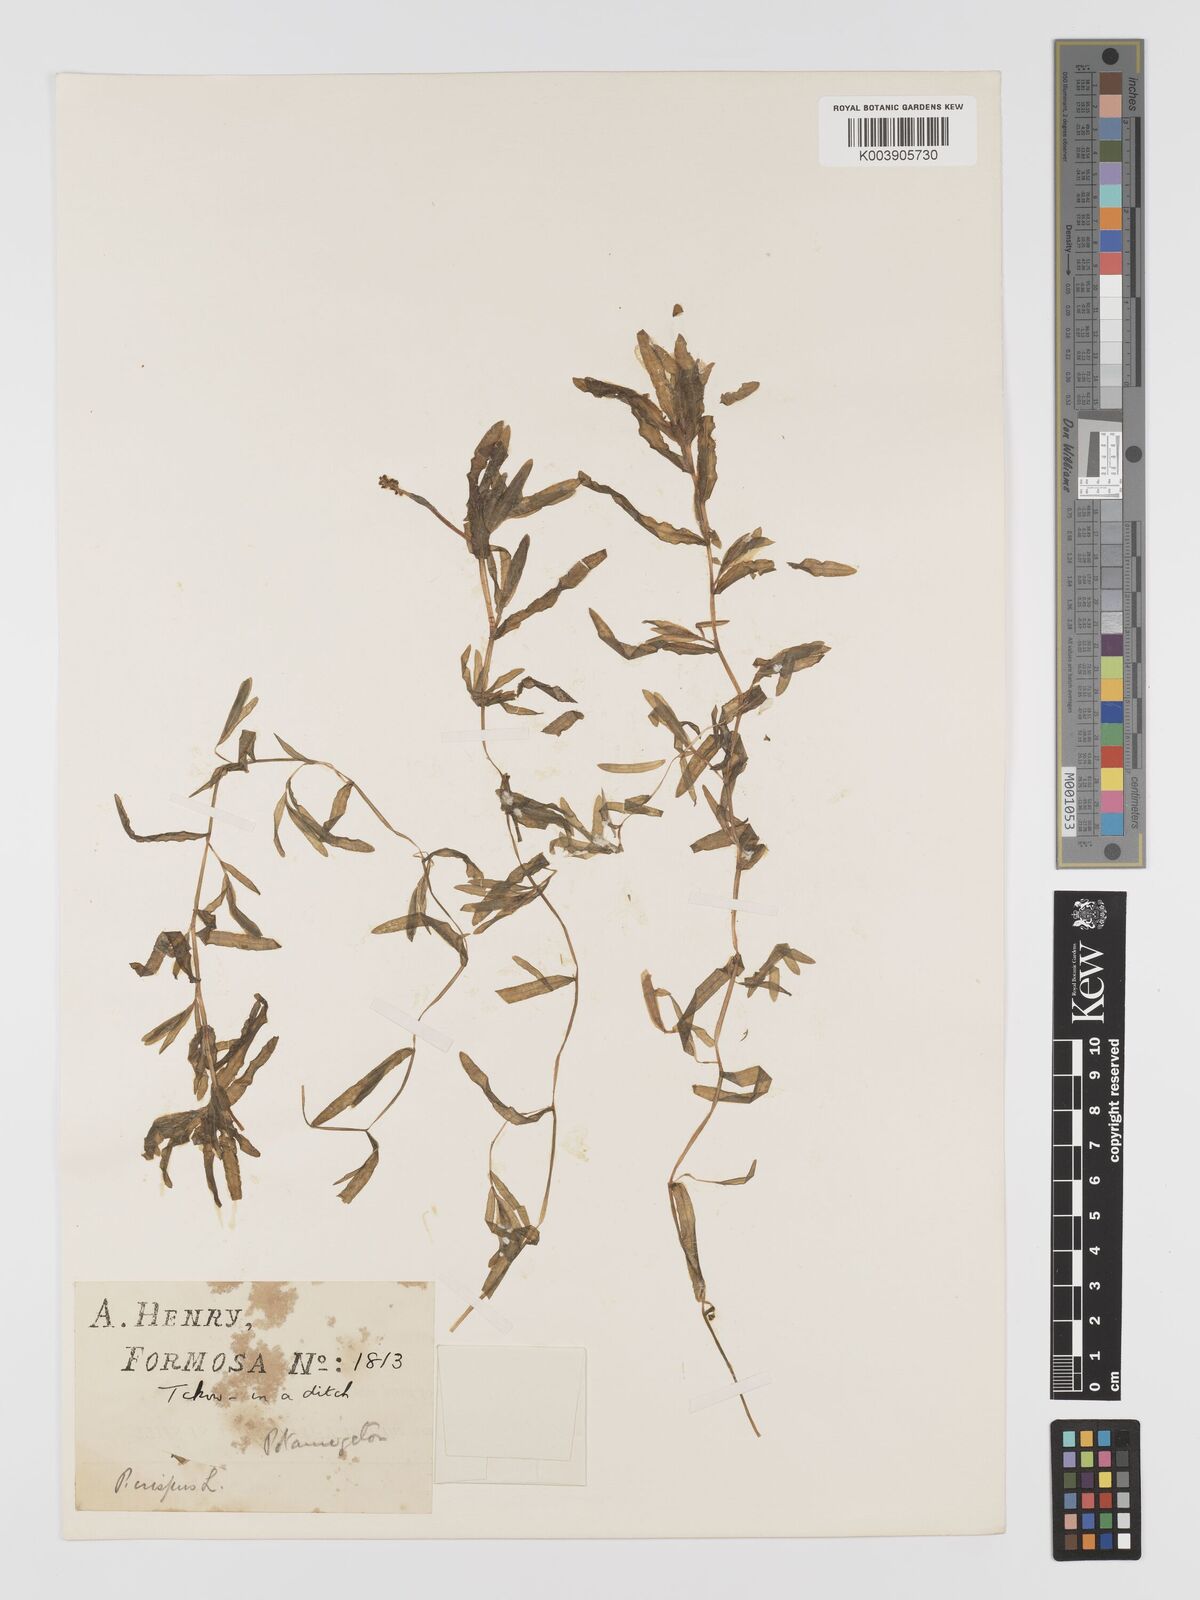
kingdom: Plantae
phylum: Tracheophyta
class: Liliopsida
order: Alismatales
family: Potamogetonaceae
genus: Potamogeton
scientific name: Potamogeton crispus
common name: Curled pondweed
